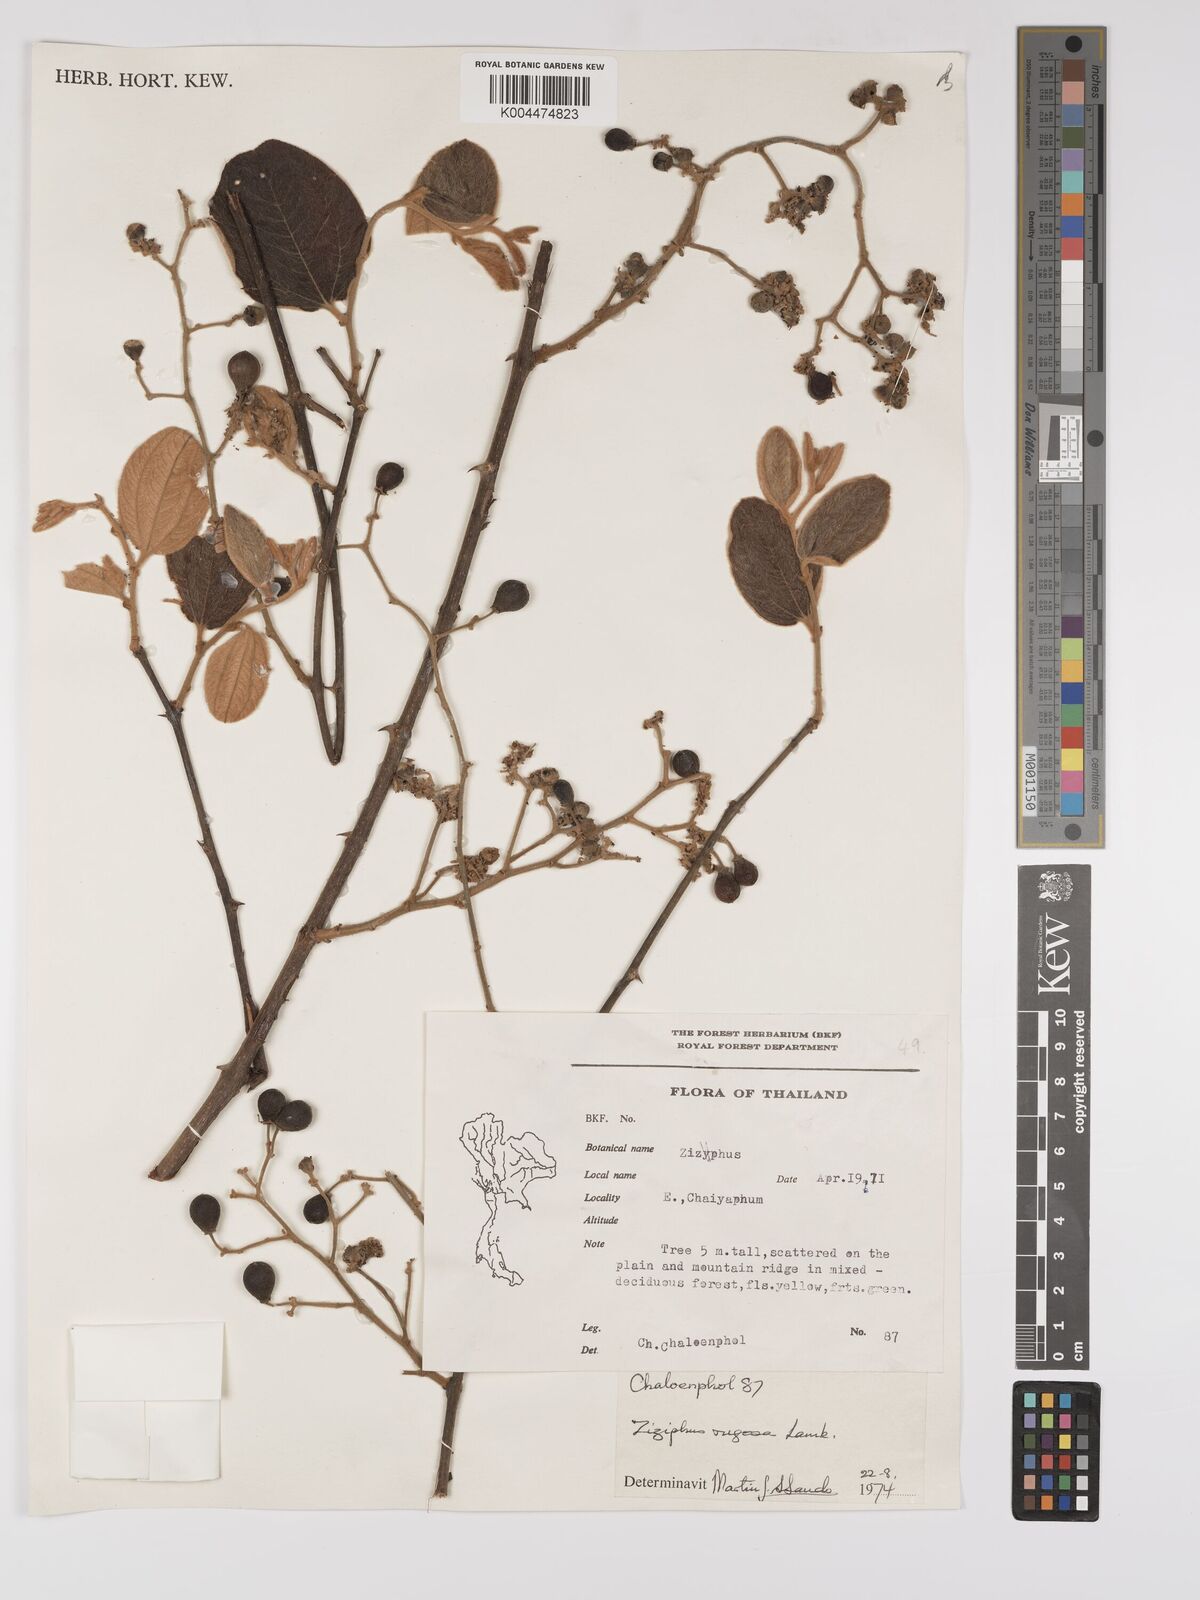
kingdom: Plantae
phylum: Tracheophyta
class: Magnoliopsida
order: Rosales
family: Rhamnaceae
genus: Ziziphus
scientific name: Ziziphus rugosa
